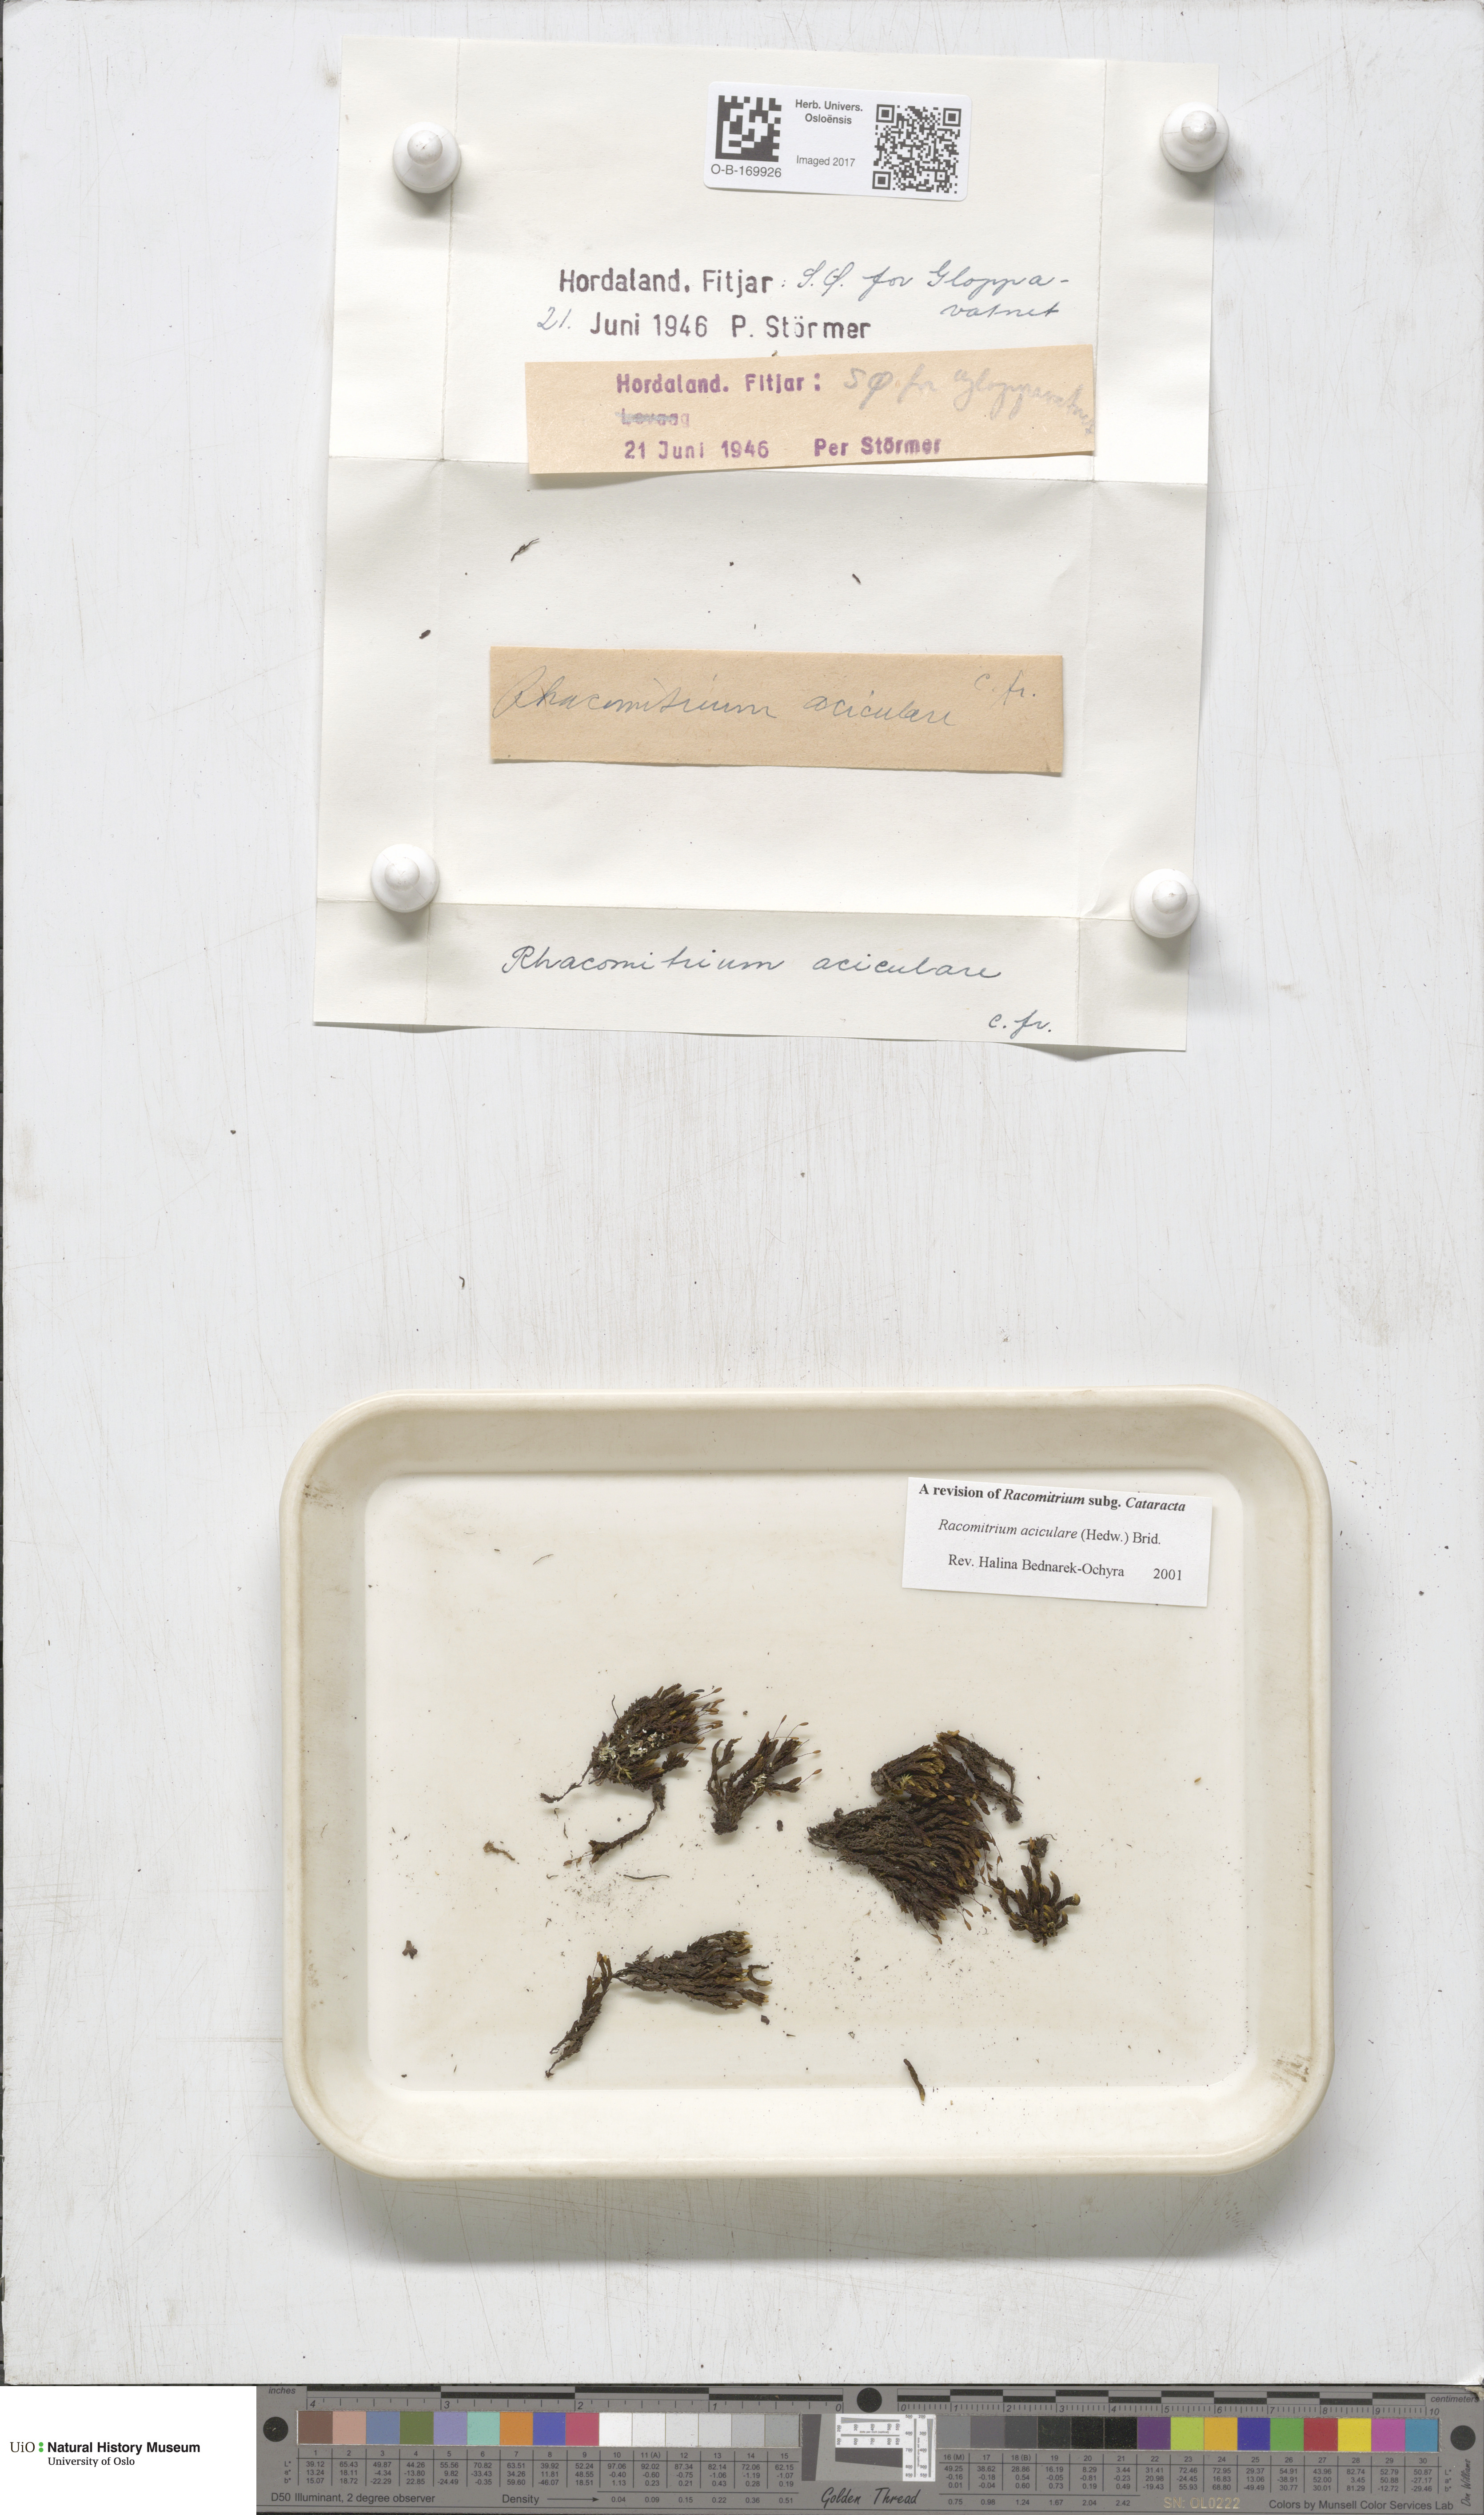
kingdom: Plantae
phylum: Bryophyta
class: Bryopsida
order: Grimmiales
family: Grimmiaceae
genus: Codriophorus
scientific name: Codriophorus acicularis
